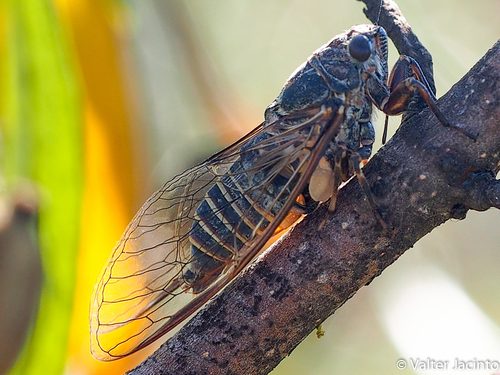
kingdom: Animalia
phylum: Arthropoda
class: Insecta
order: Hemiptera
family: Cicadidae
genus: Tettigettalna
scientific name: Tettigettalna mariae
